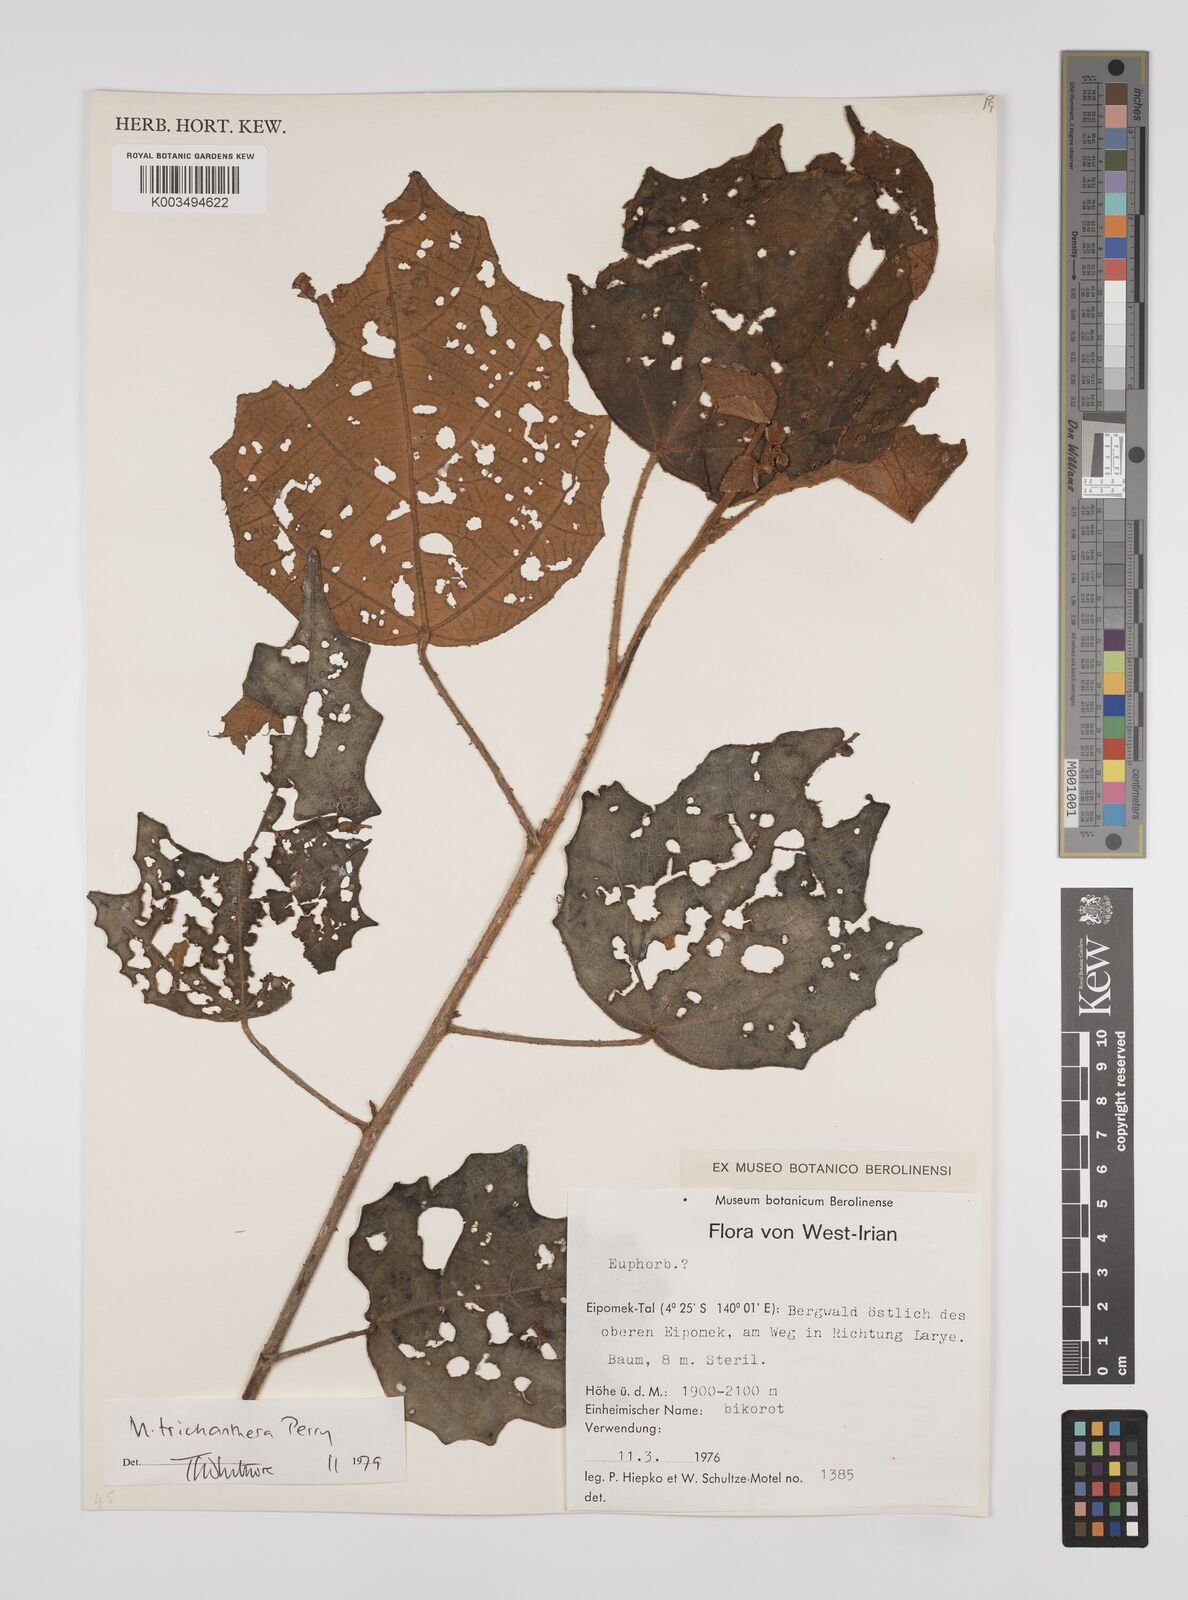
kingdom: Plantae
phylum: Tracheophyta
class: Magnoliopsida
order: Malpighiales
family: Euphorbiaceae
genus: Macaranga
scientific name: Macaranga trichanthera
